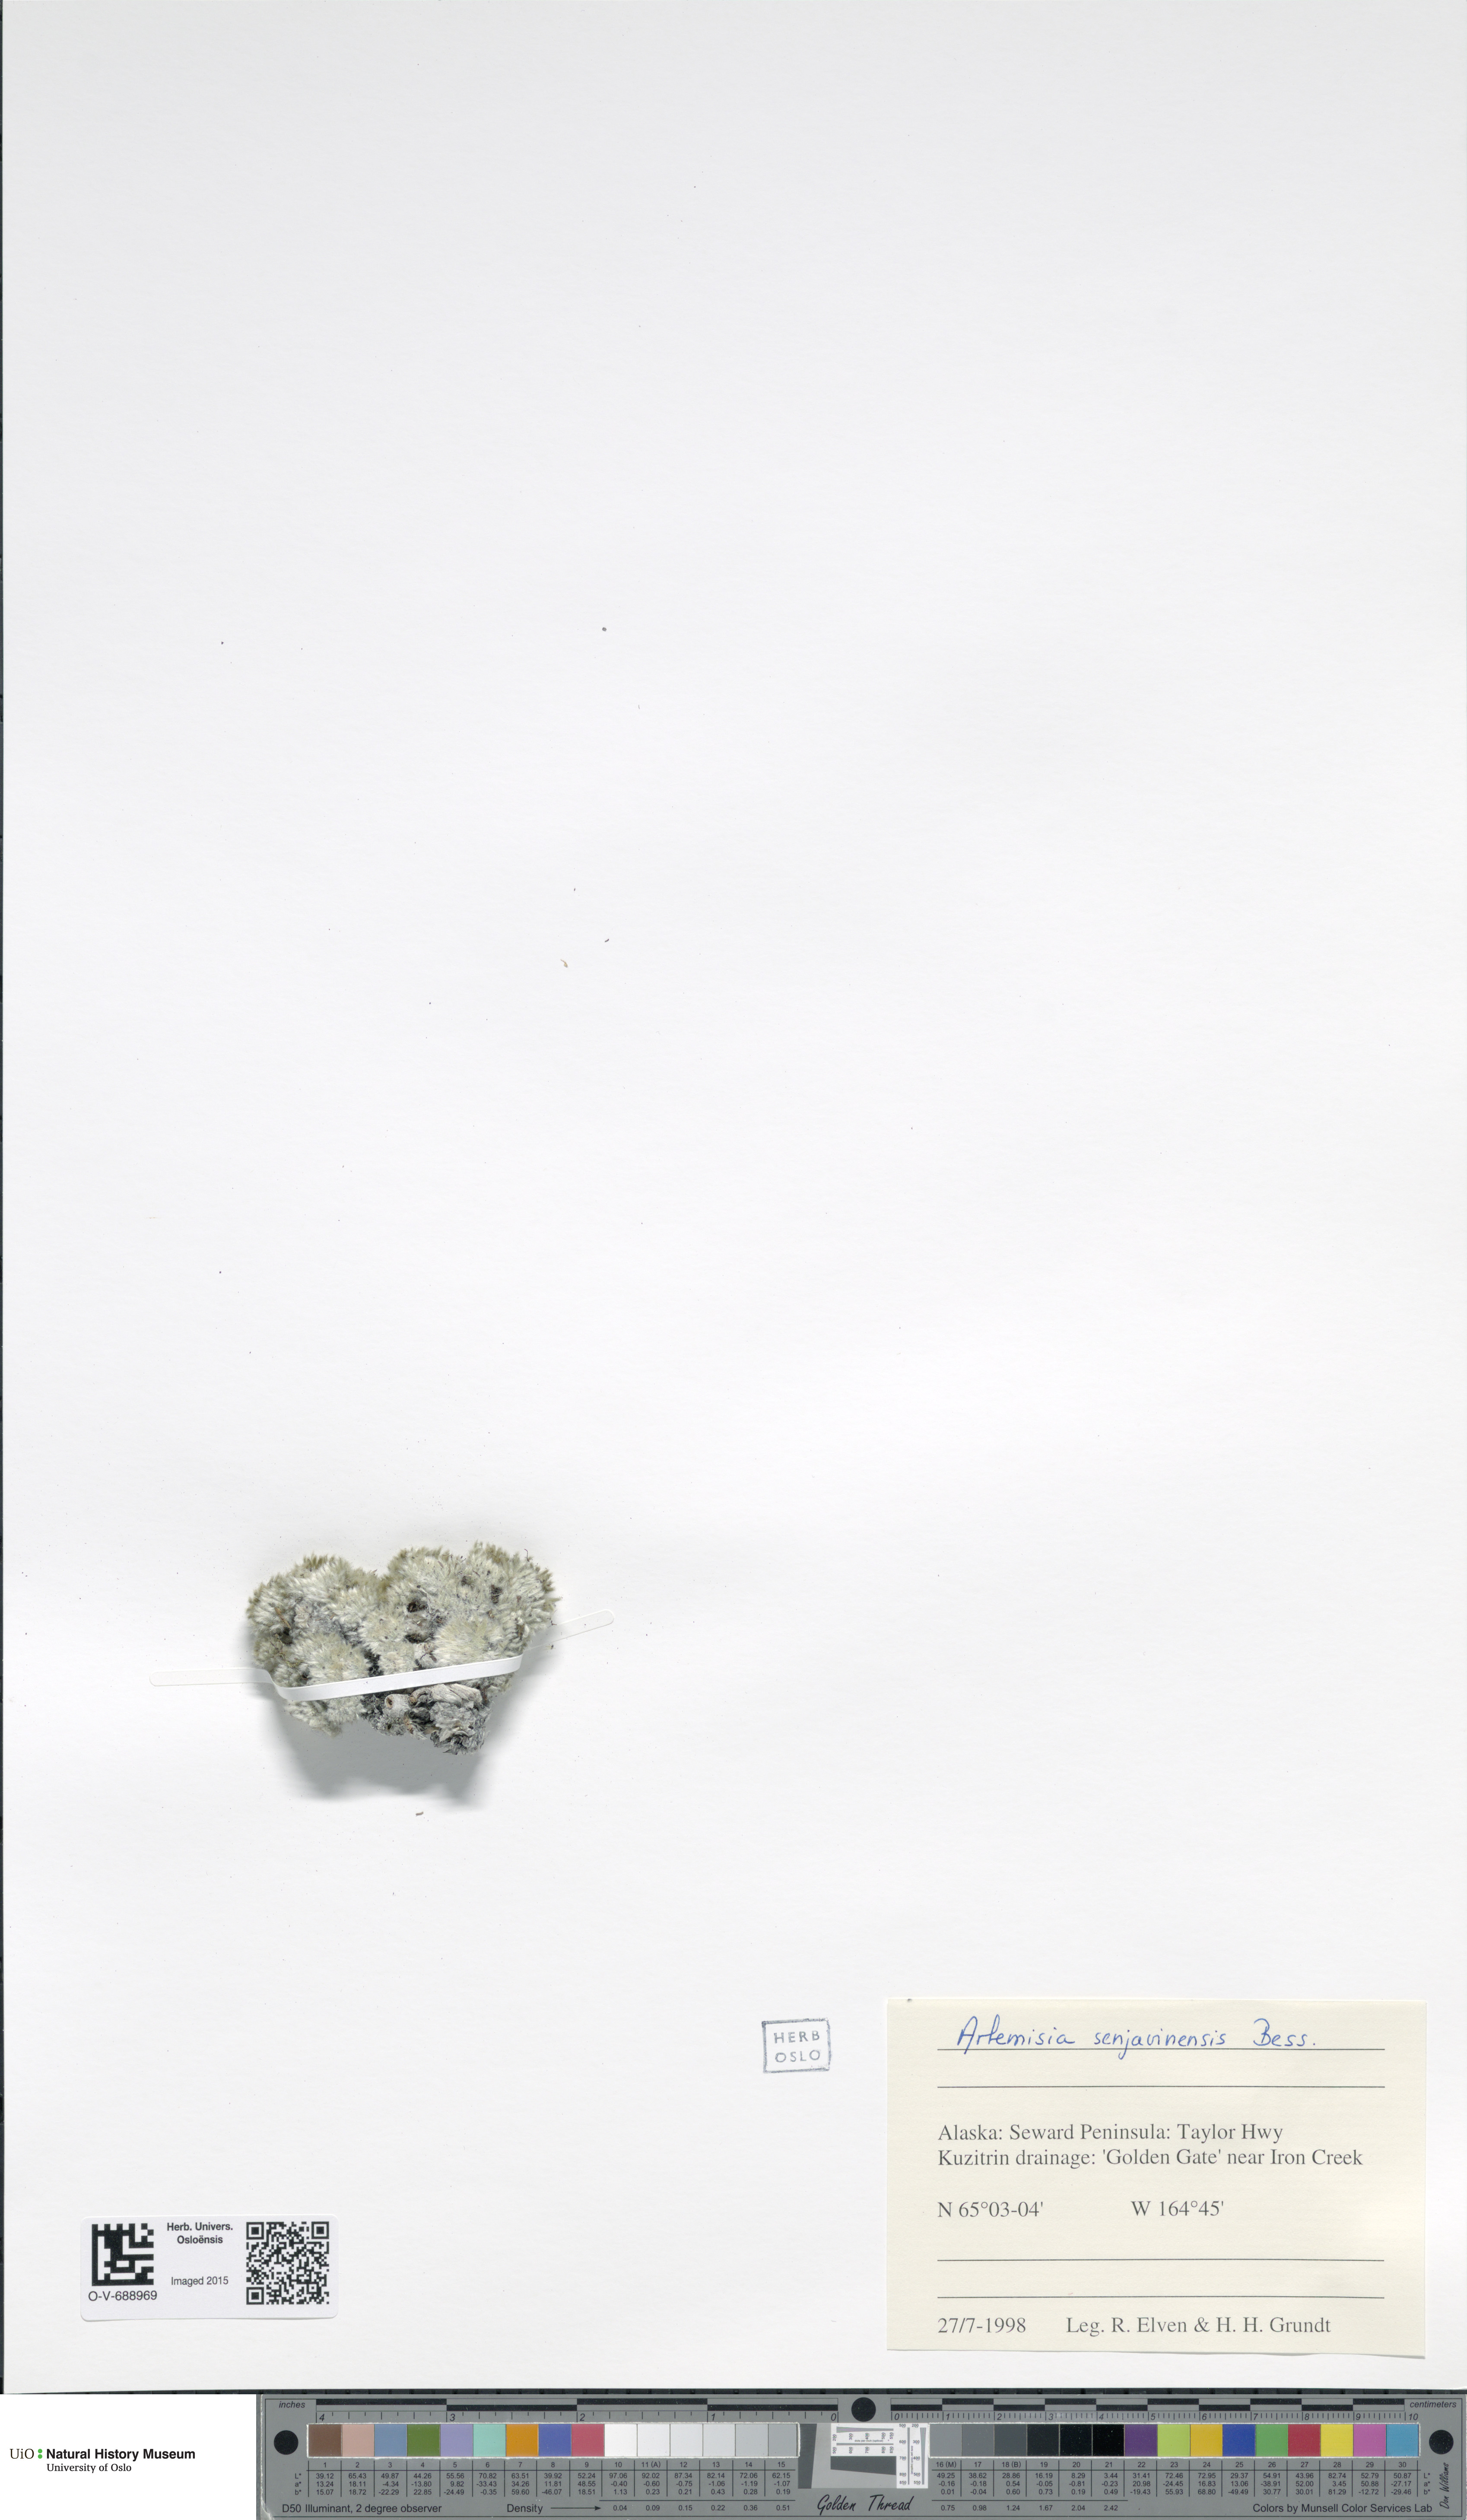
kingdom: Plantae
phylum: Tracheophyta
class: Magnoliopsida
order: Asterales
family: Asteraceae
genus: Artemisia
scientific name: Artemisia senjavinensis
